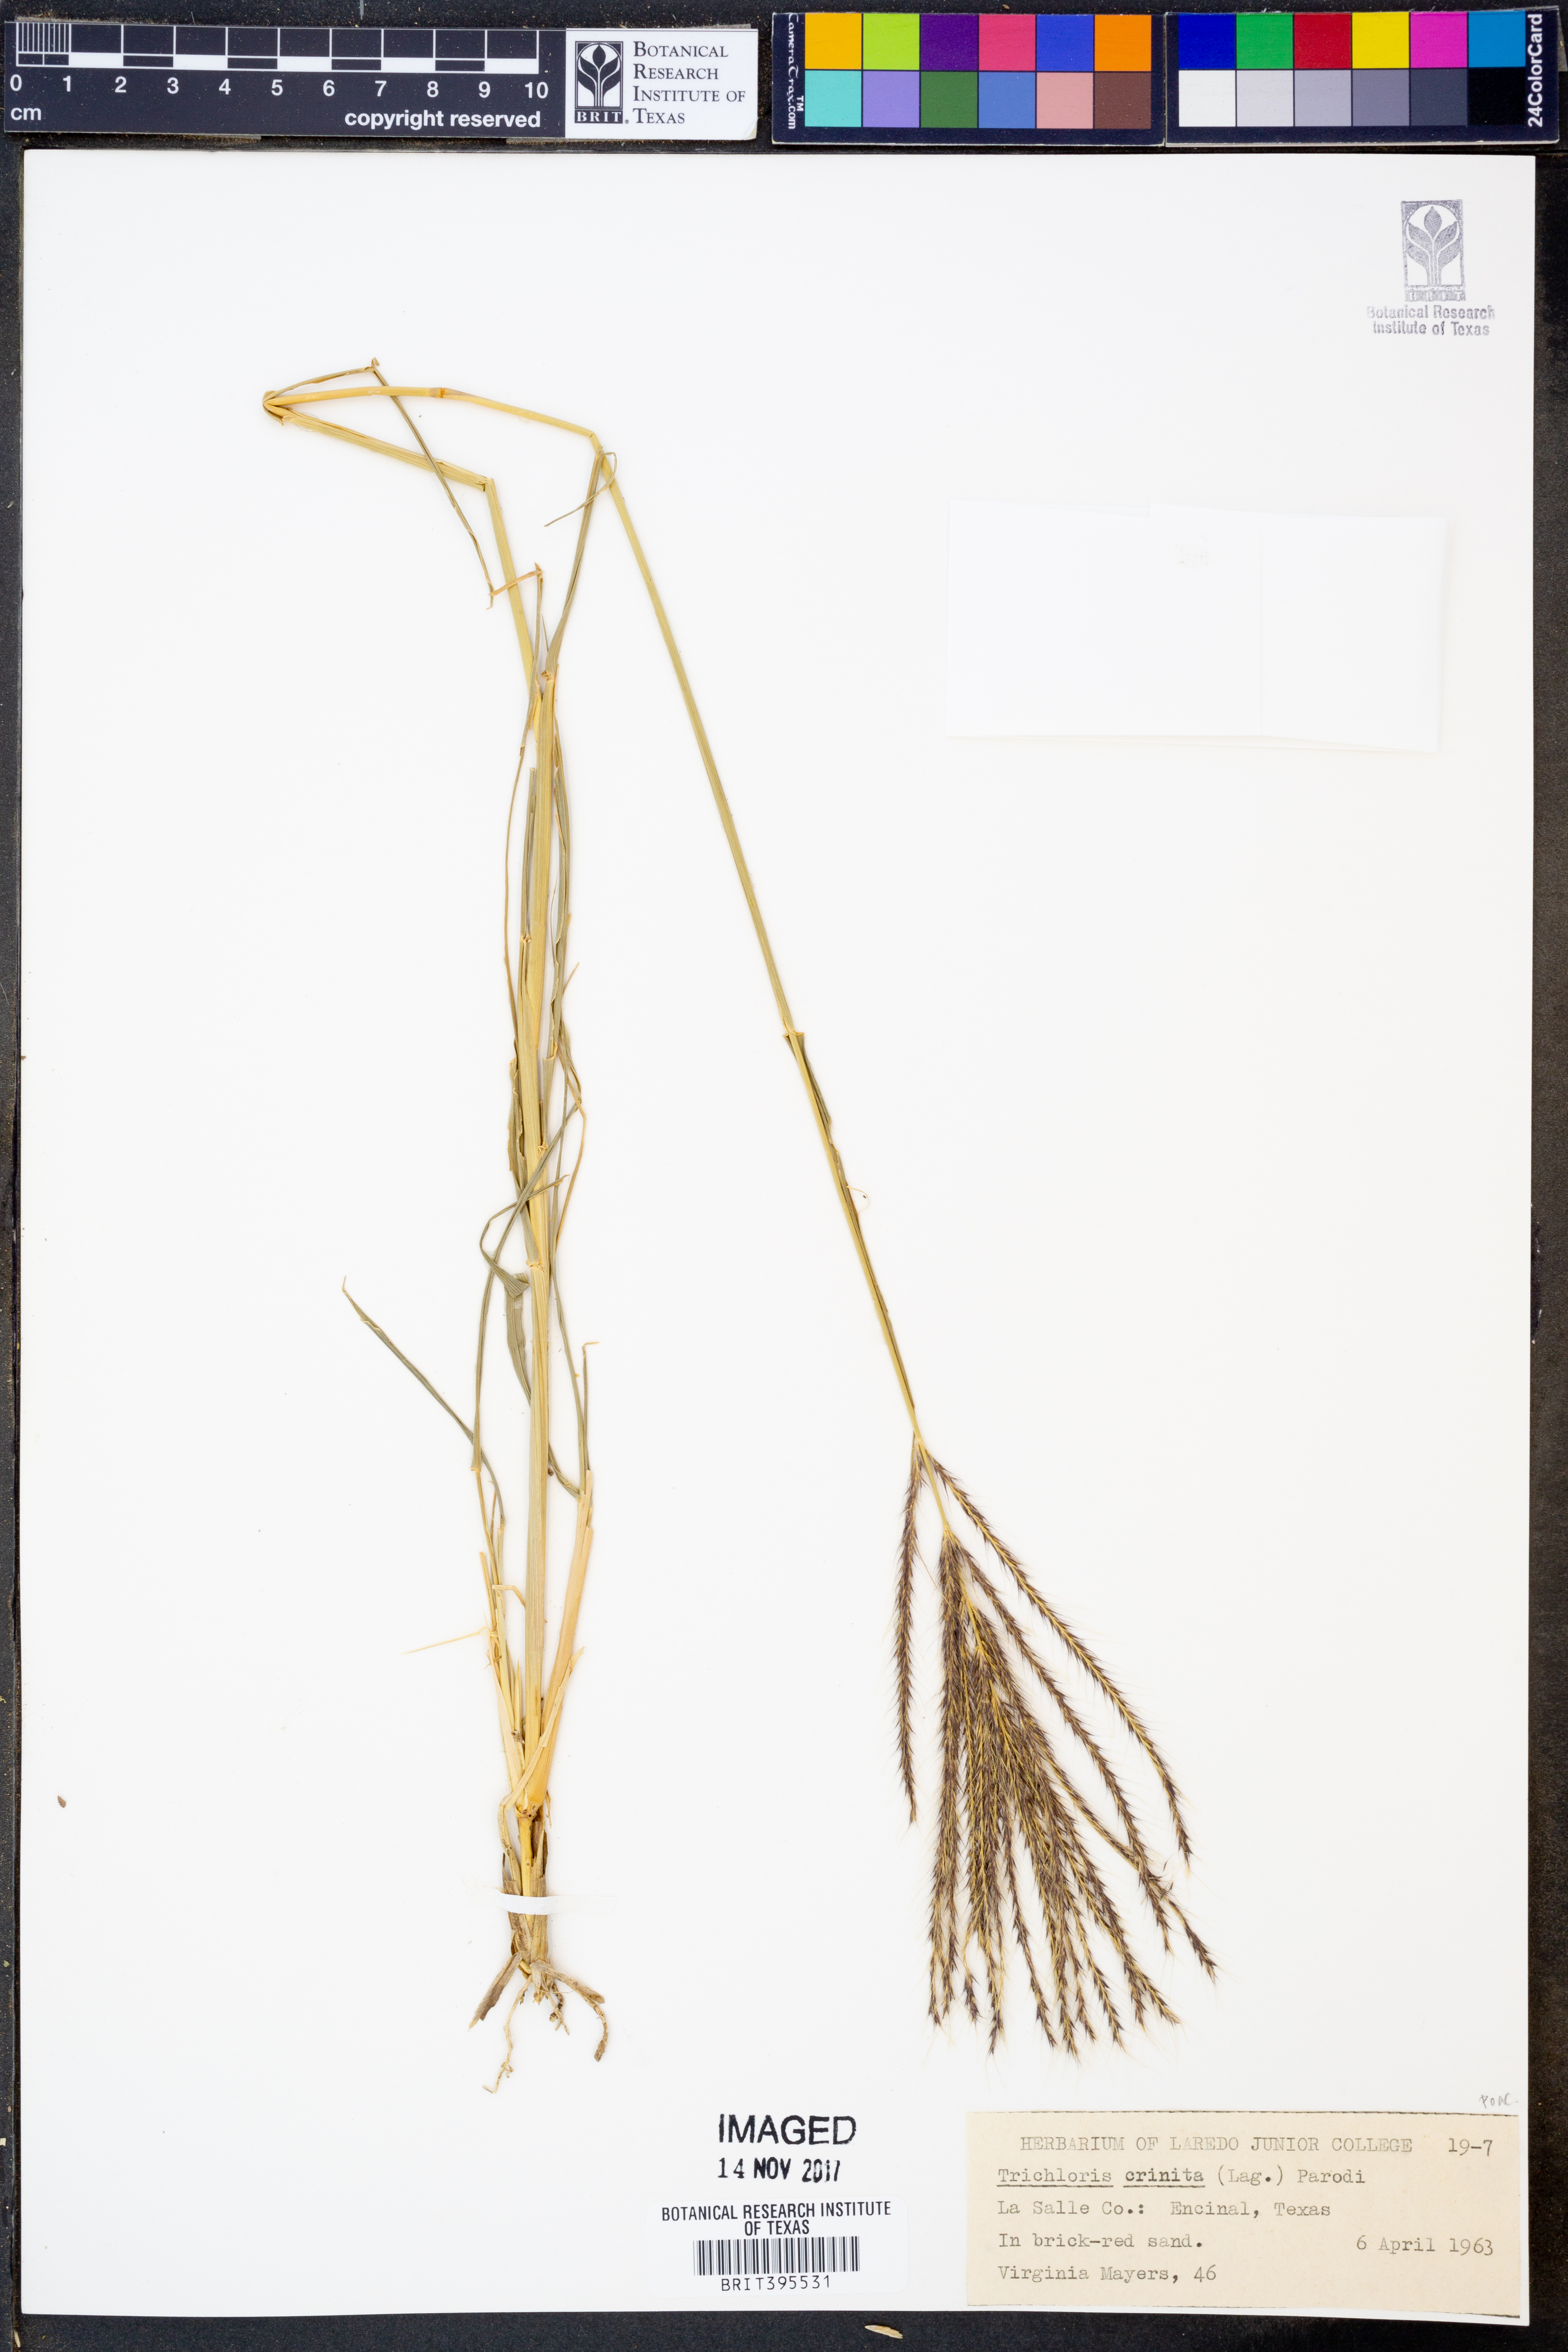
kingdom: Plantae
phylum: Tracheophyta
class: Liliopsida
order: Poales
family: Poaceae
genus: Leptochloa
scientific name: Leptochloa crinita
